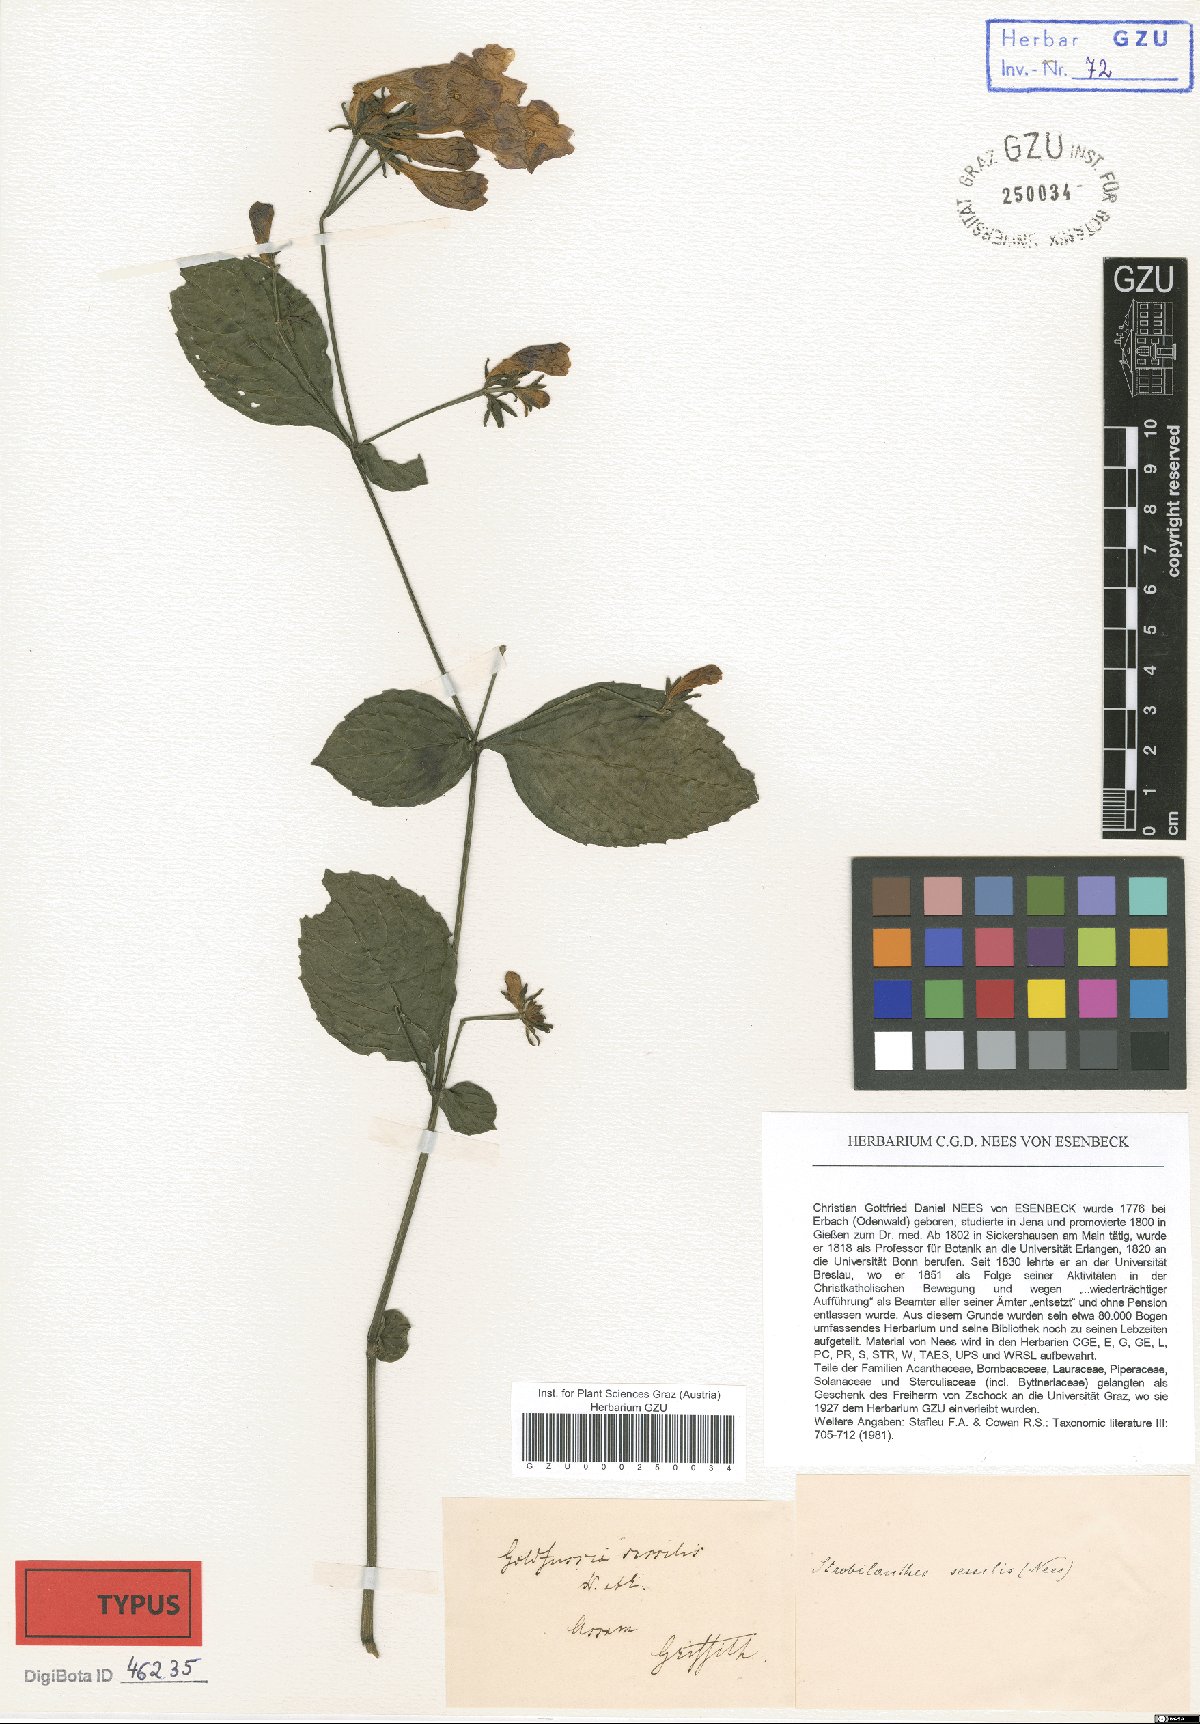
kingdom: Plantae
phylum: Tracheophyta
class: Magnoliopsida
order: Lamiales
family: Acanthaceae
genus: Strobilanthes
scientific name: Strobilanthes clarkei
